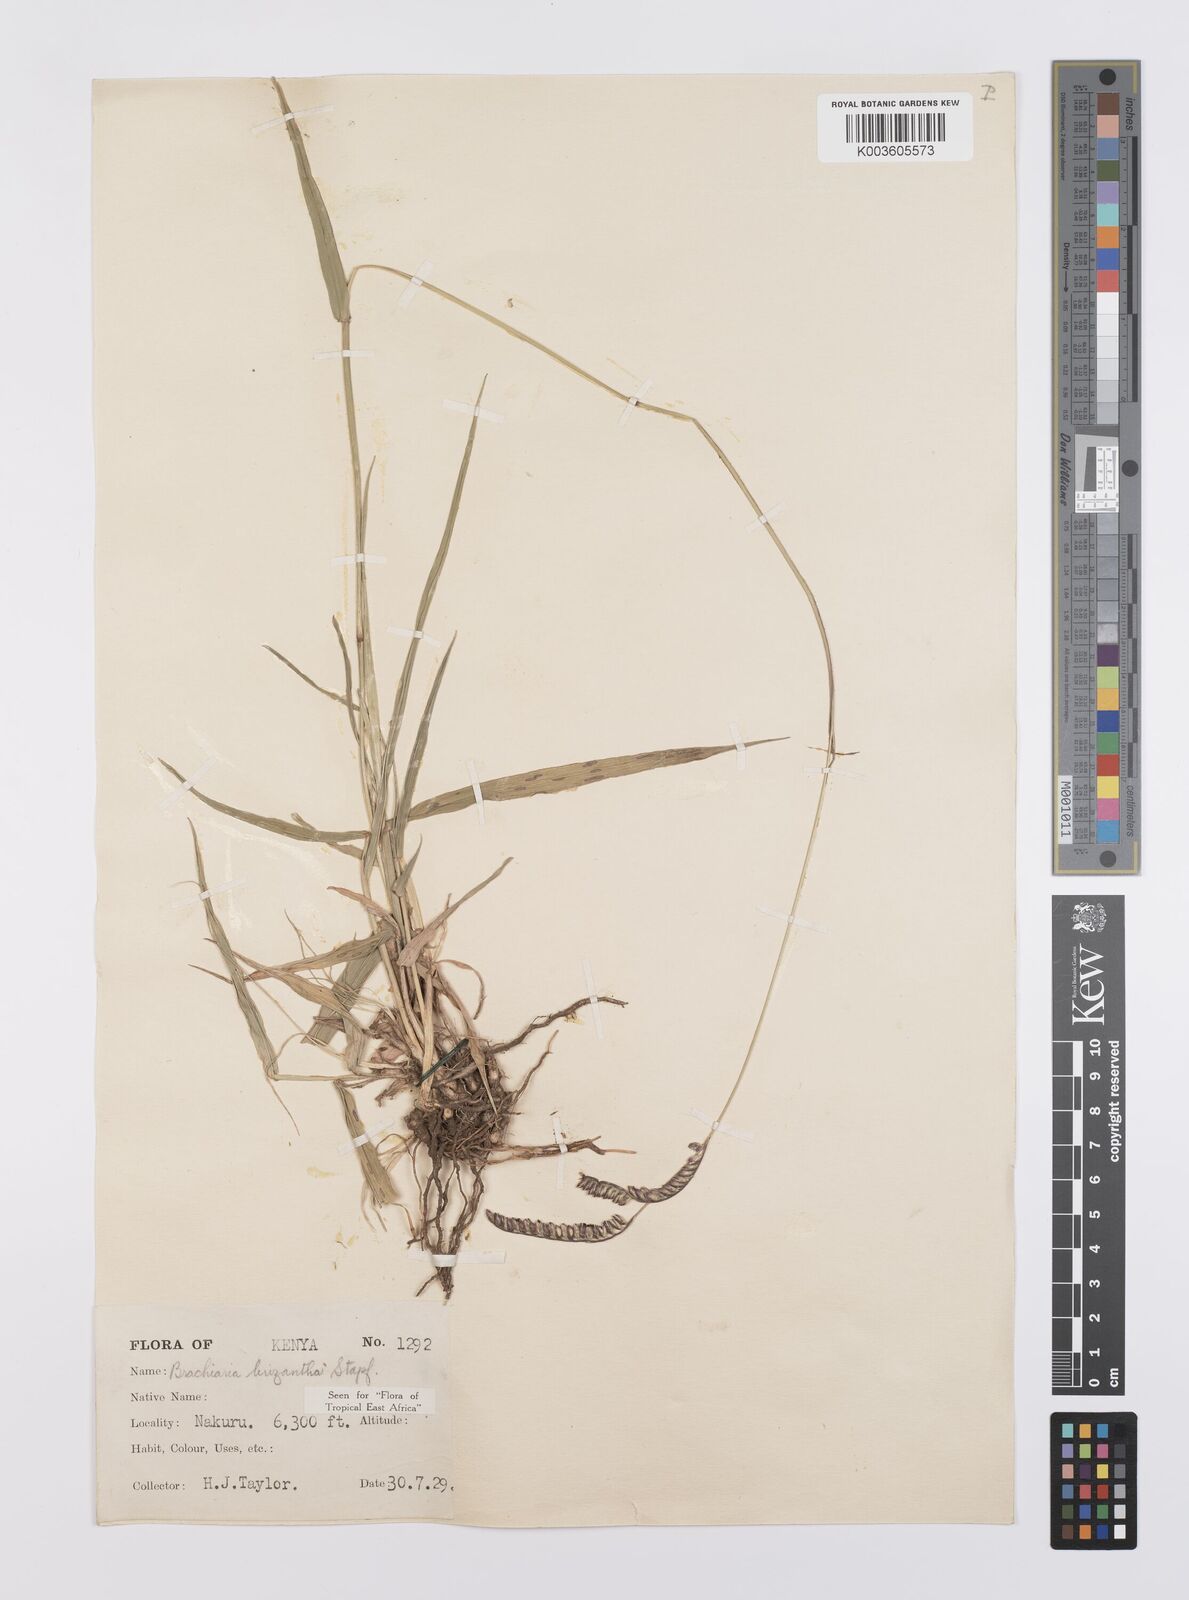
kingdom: Plantae
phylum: Tracheophyta
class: Liliopsida
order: Poales
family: Poaceae
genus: Urochloa
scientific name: Urochloa brizantha
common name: Palisade signalgrass
